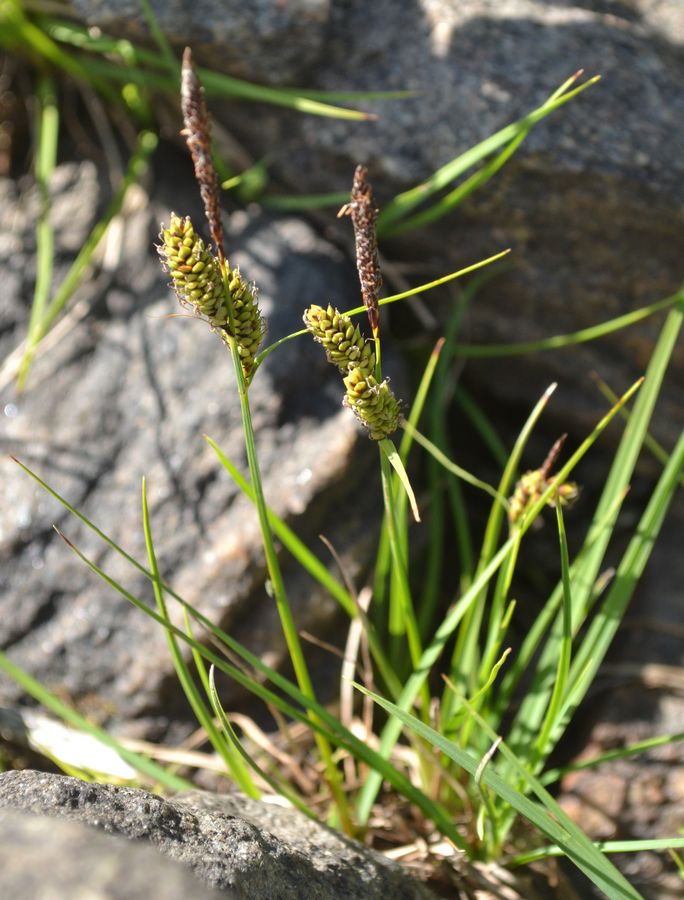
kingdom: Plantae
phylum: Tracheophyta
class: Liliopsida
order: Poales
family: Cyperaceae
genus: Carex
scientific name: Carex nigra
